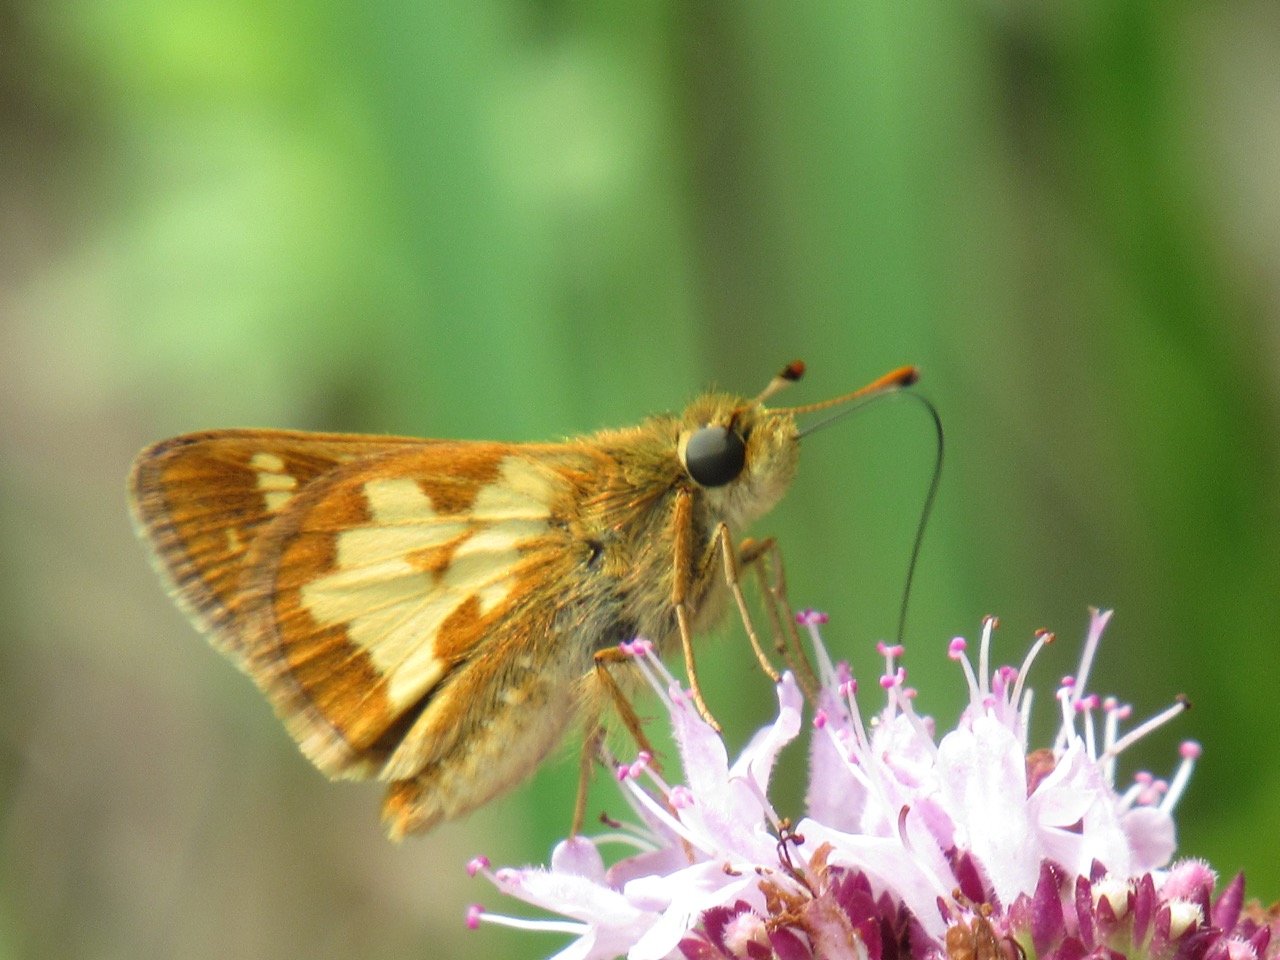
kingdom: Animalia
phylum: Arthropoda
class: Insecta
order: Lepidoptera
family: Hesperiidae
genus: Polites
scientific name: Polites coras
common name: Peck's Skipper
